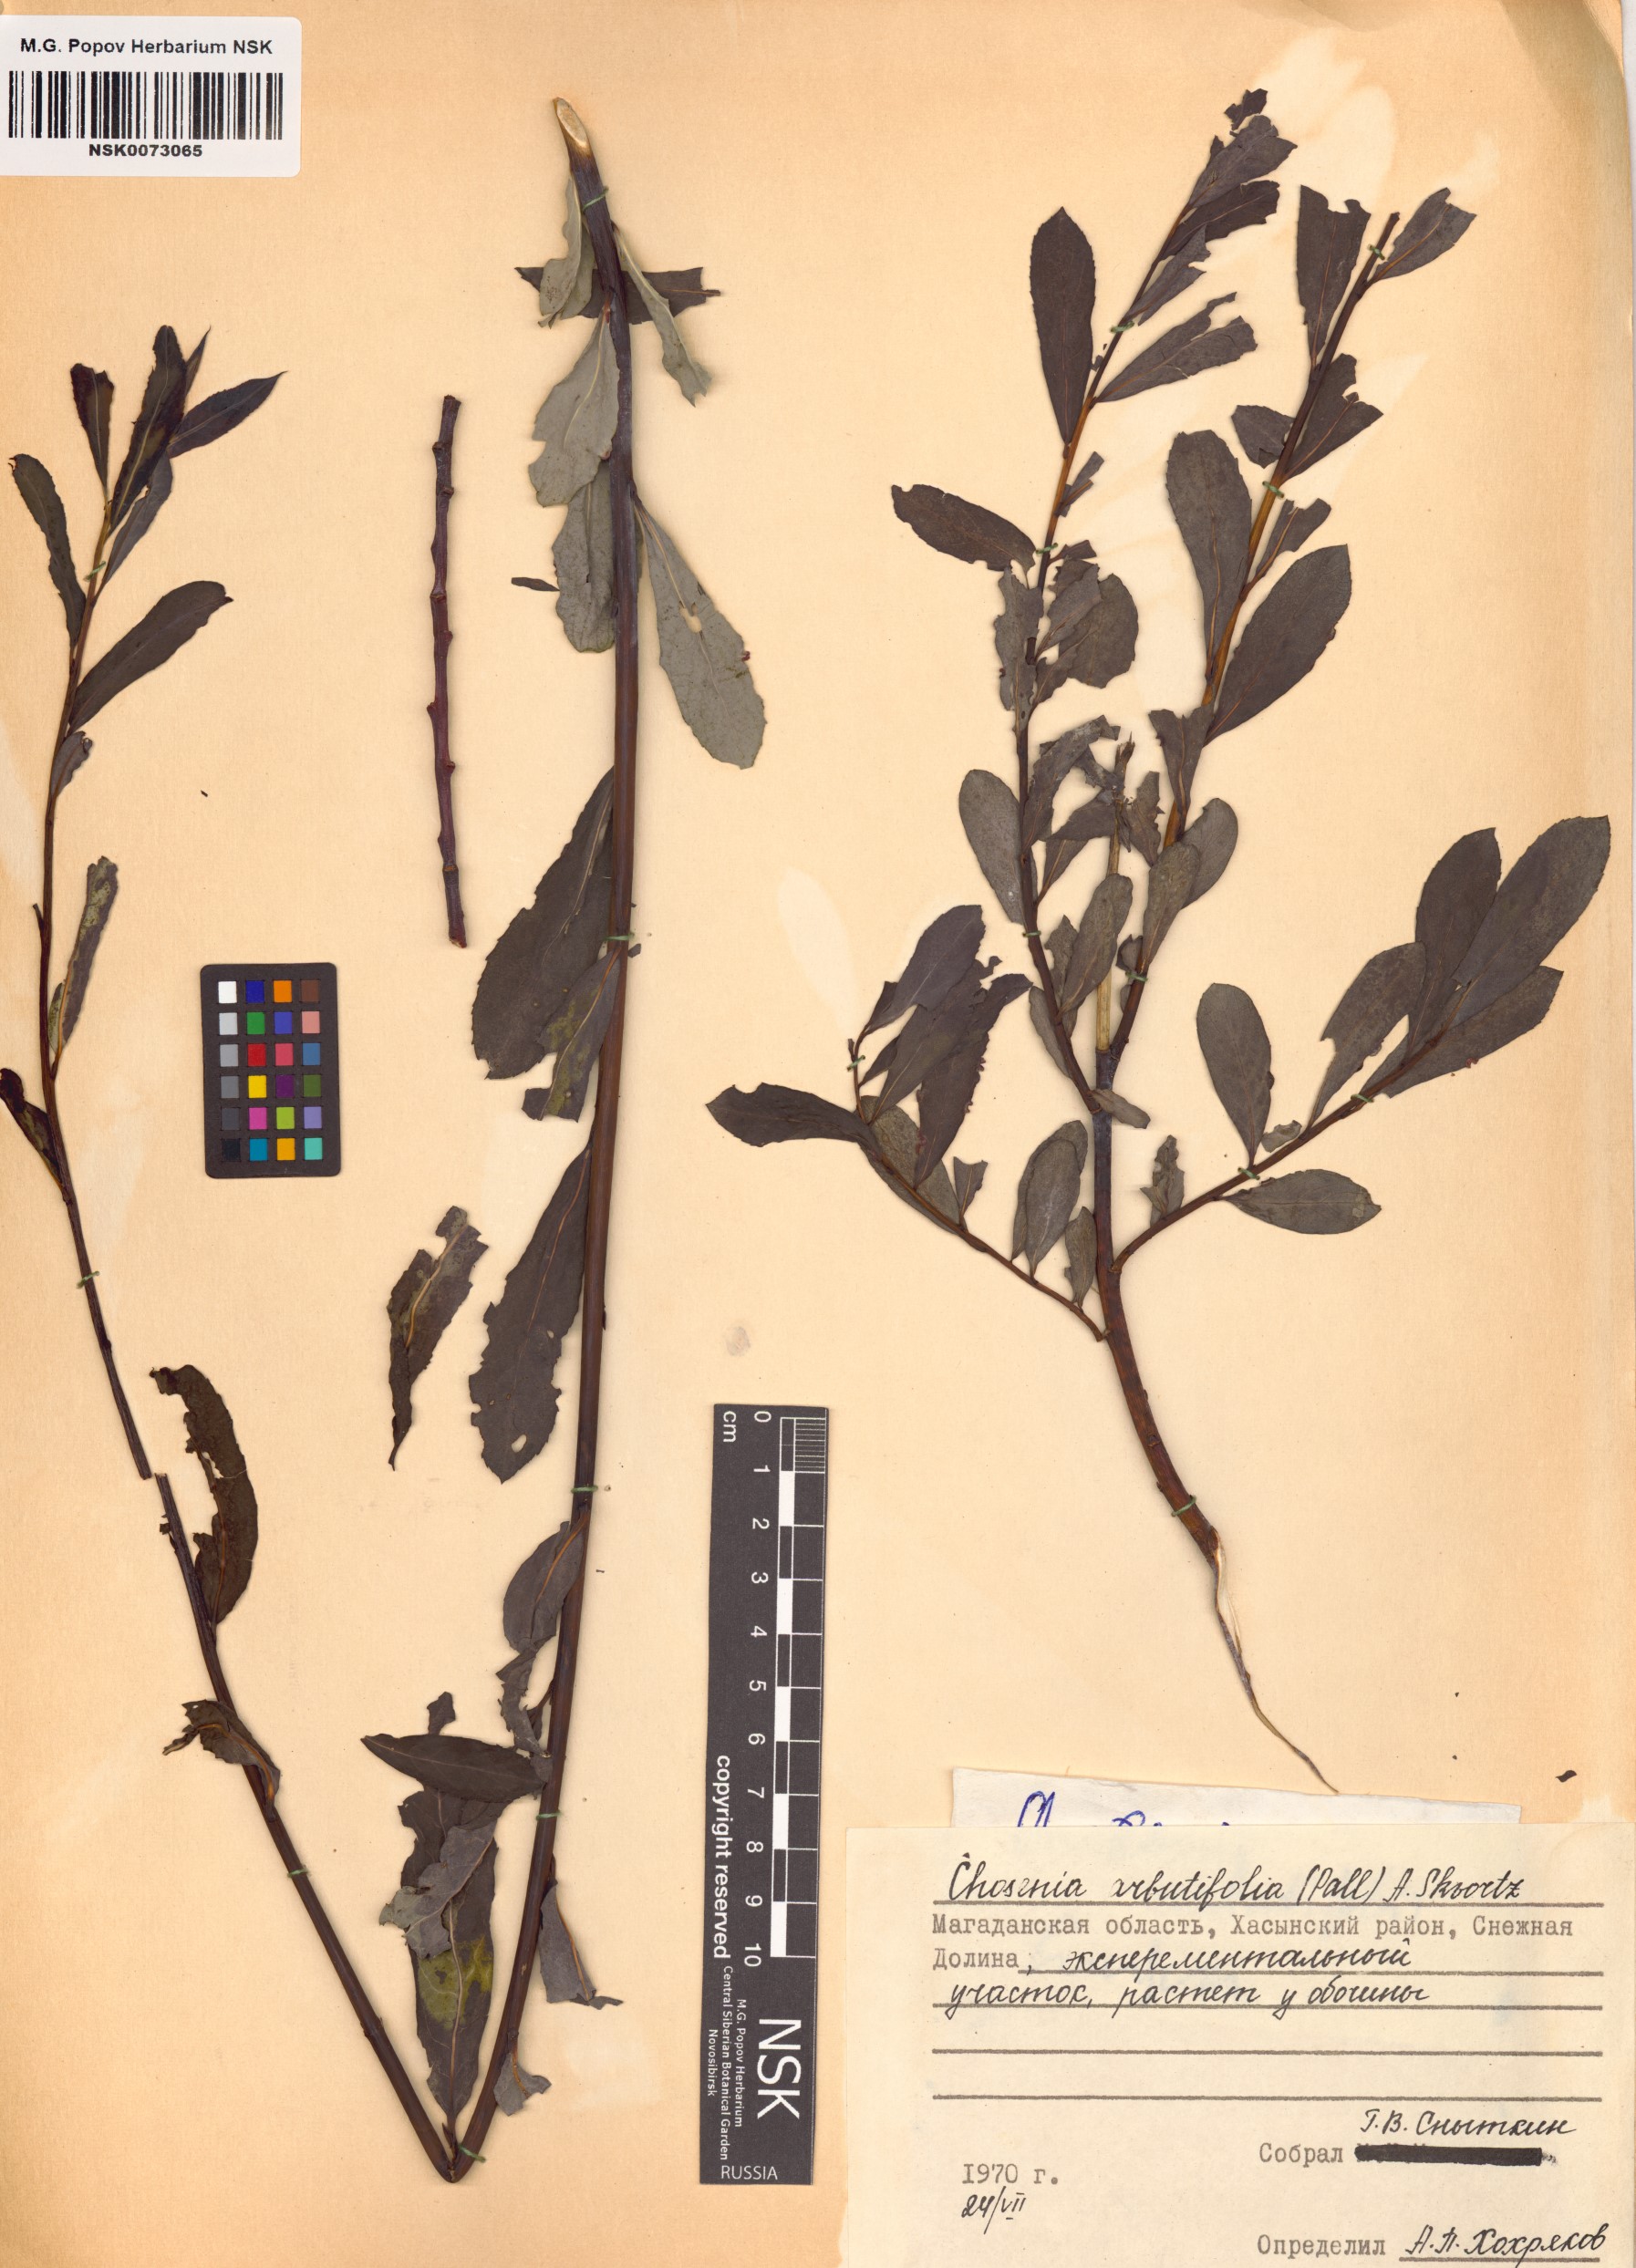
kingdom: Plantae
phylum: Tracheophyta
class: Magnoliopsida
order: Malpighiales
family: Salicaceae
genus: Chosenia
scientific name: Chosenia arbutifolia
